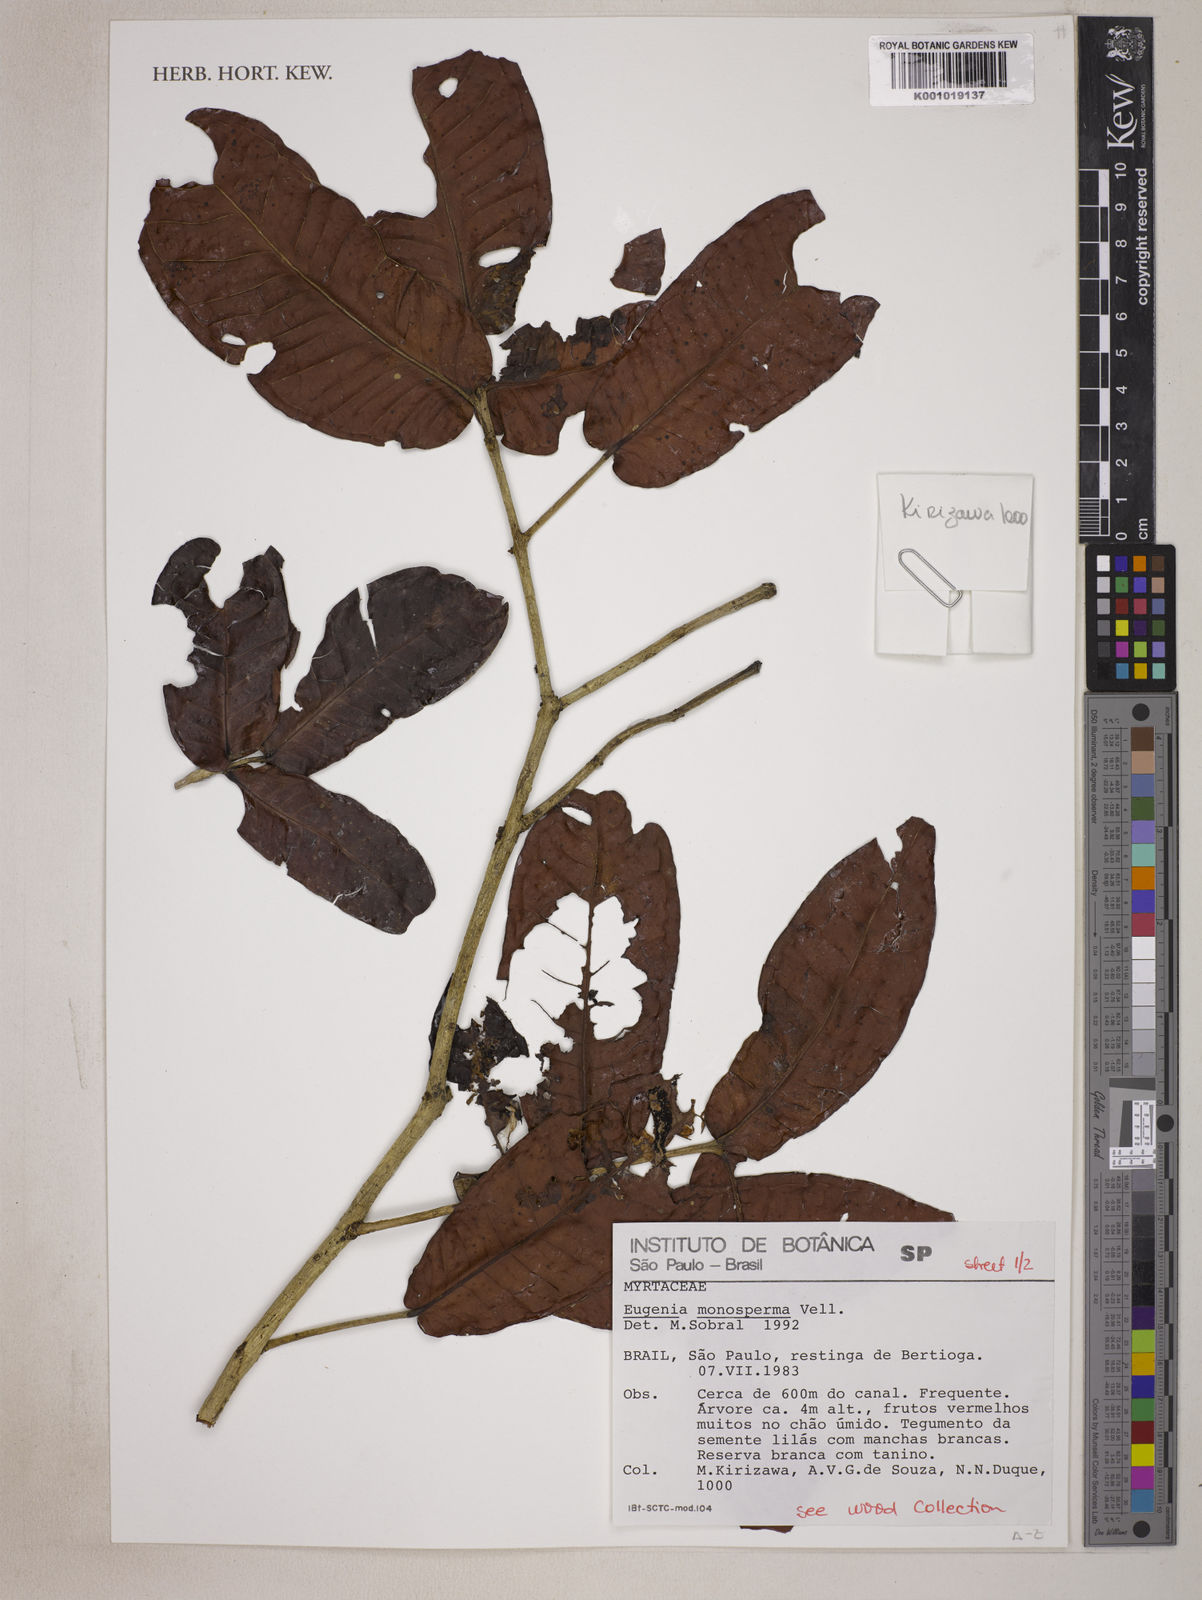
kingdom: Plantae
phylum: Tracheophyta
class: Magnoliopsida
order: Myrtales
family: Myrtaceae
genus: Eugenia
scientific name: Eugenia monosperma
